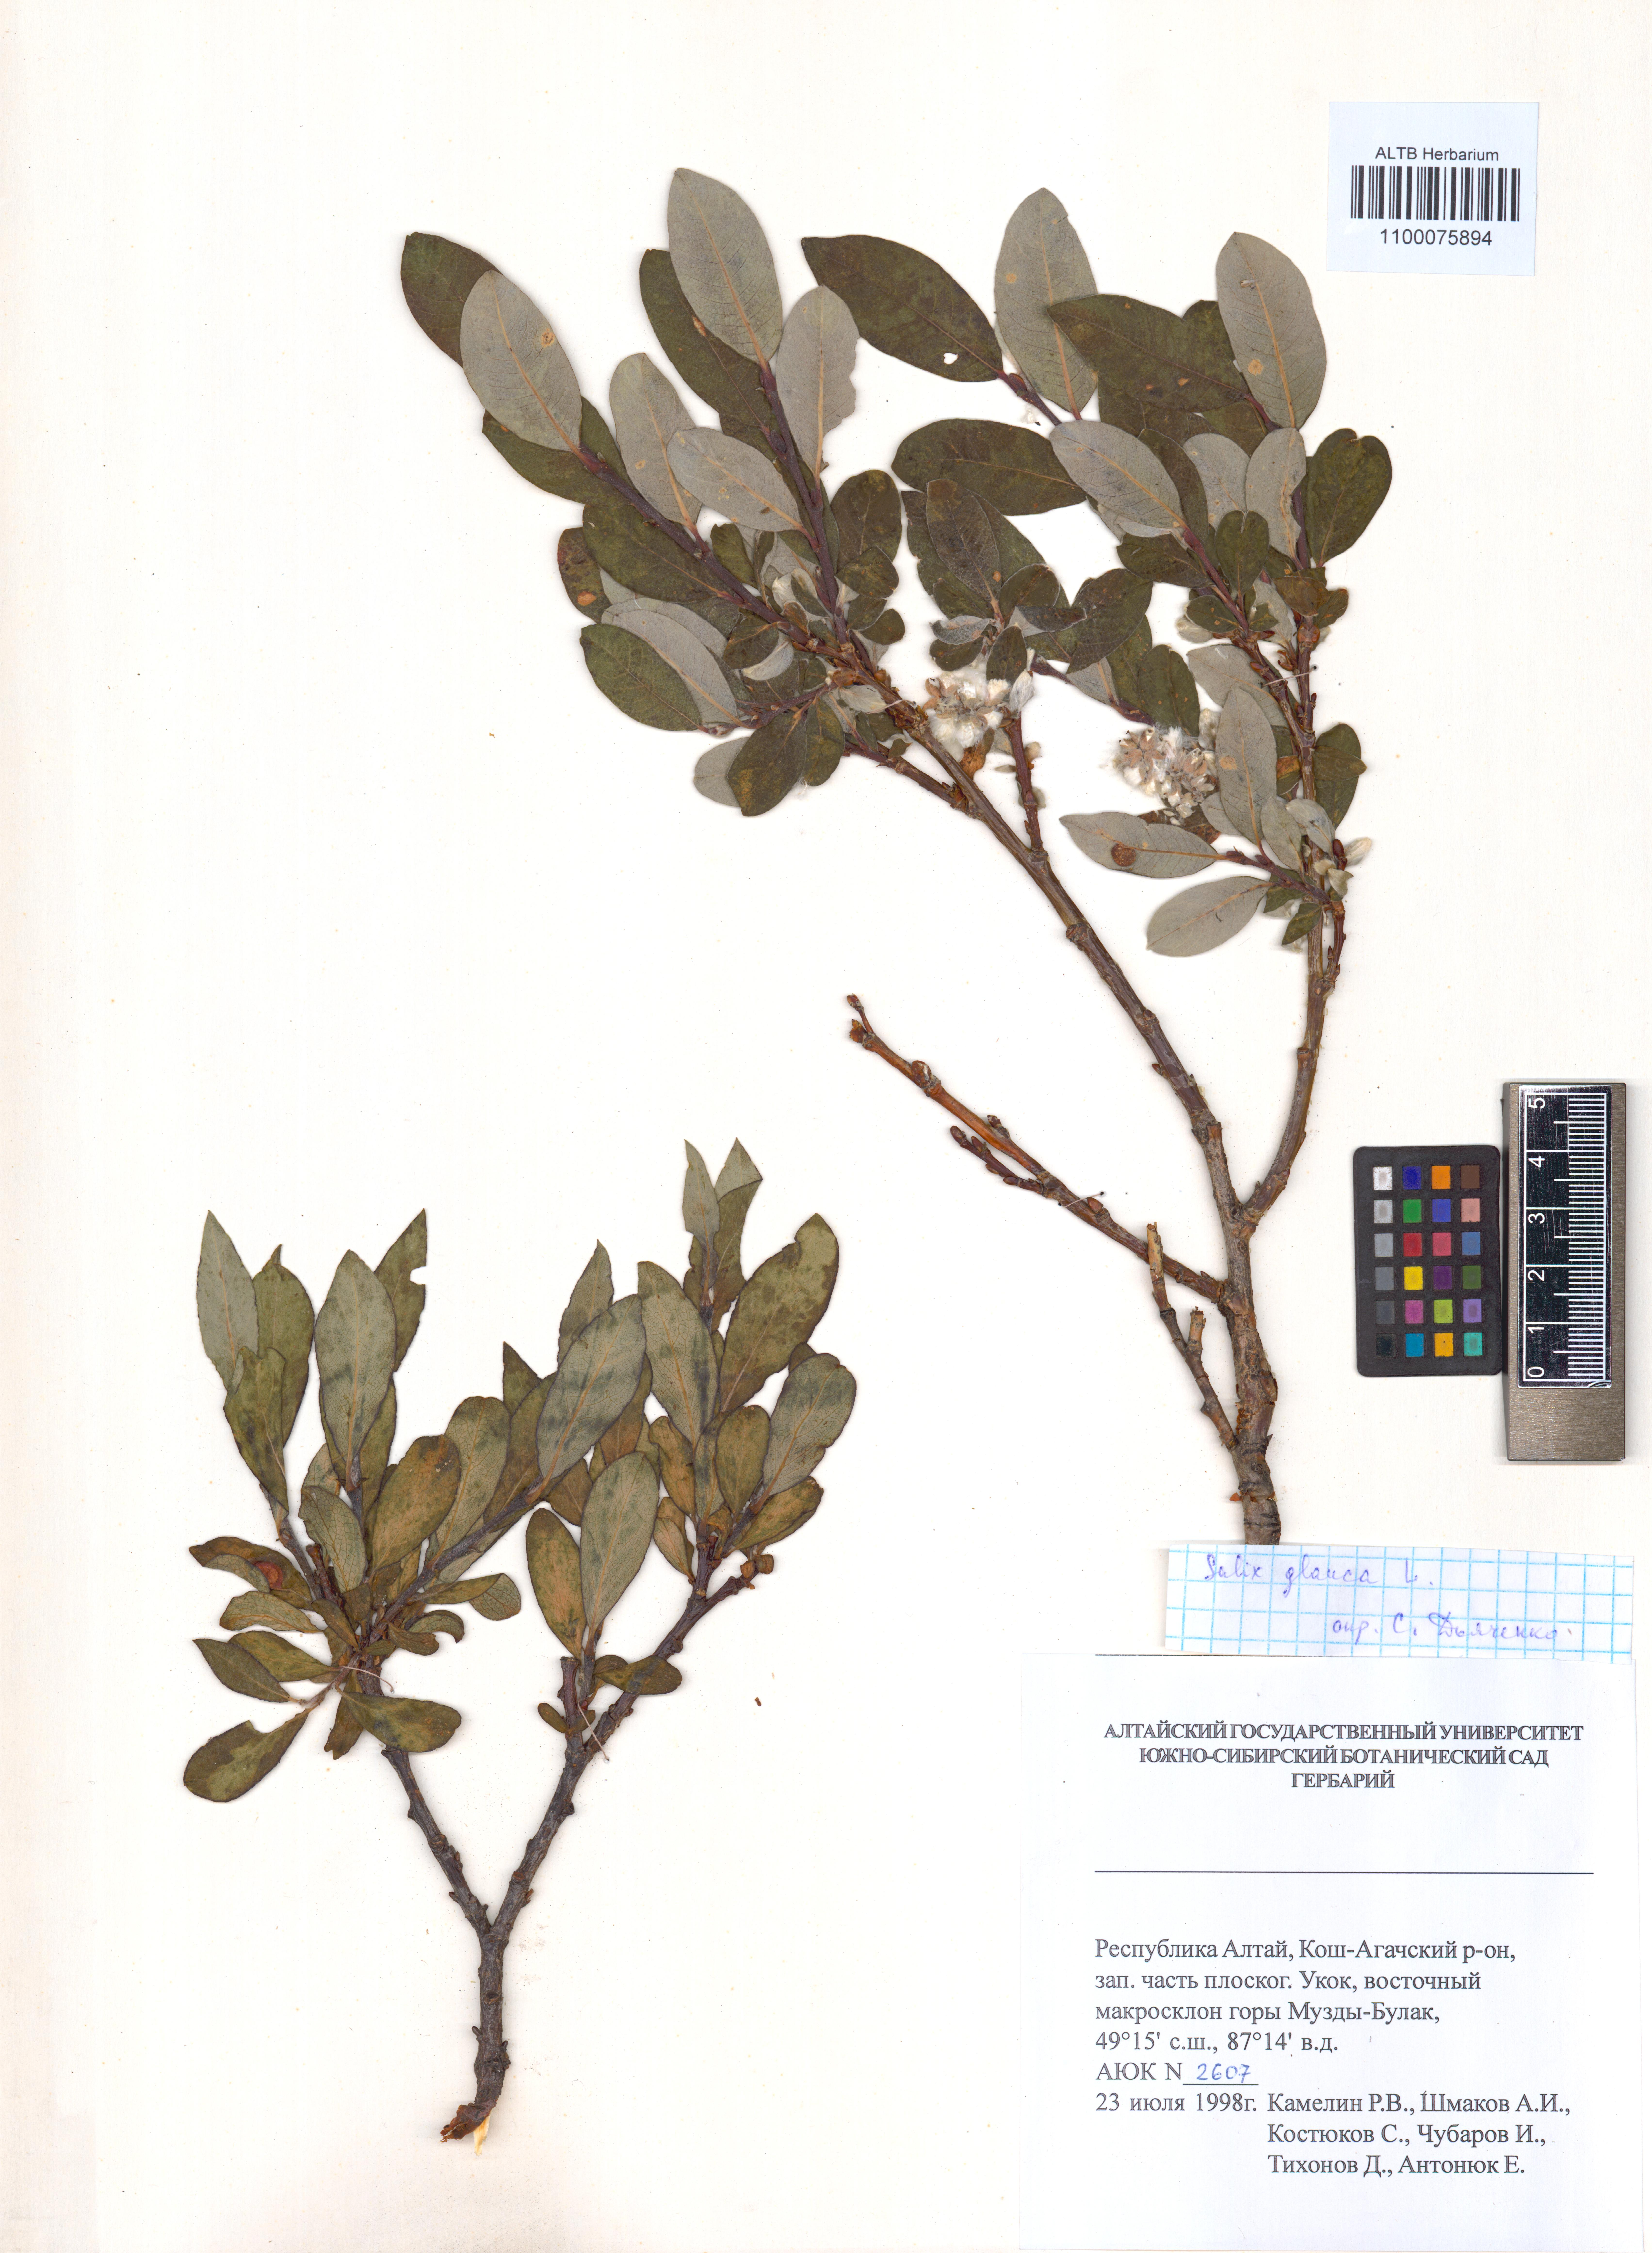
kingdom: Plantae
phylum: Tracheophyta
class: Magnoliopsida
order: Malpighiales
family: Salicaceae
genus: Salix
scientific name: Salix glauca
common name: Glaucous willow
